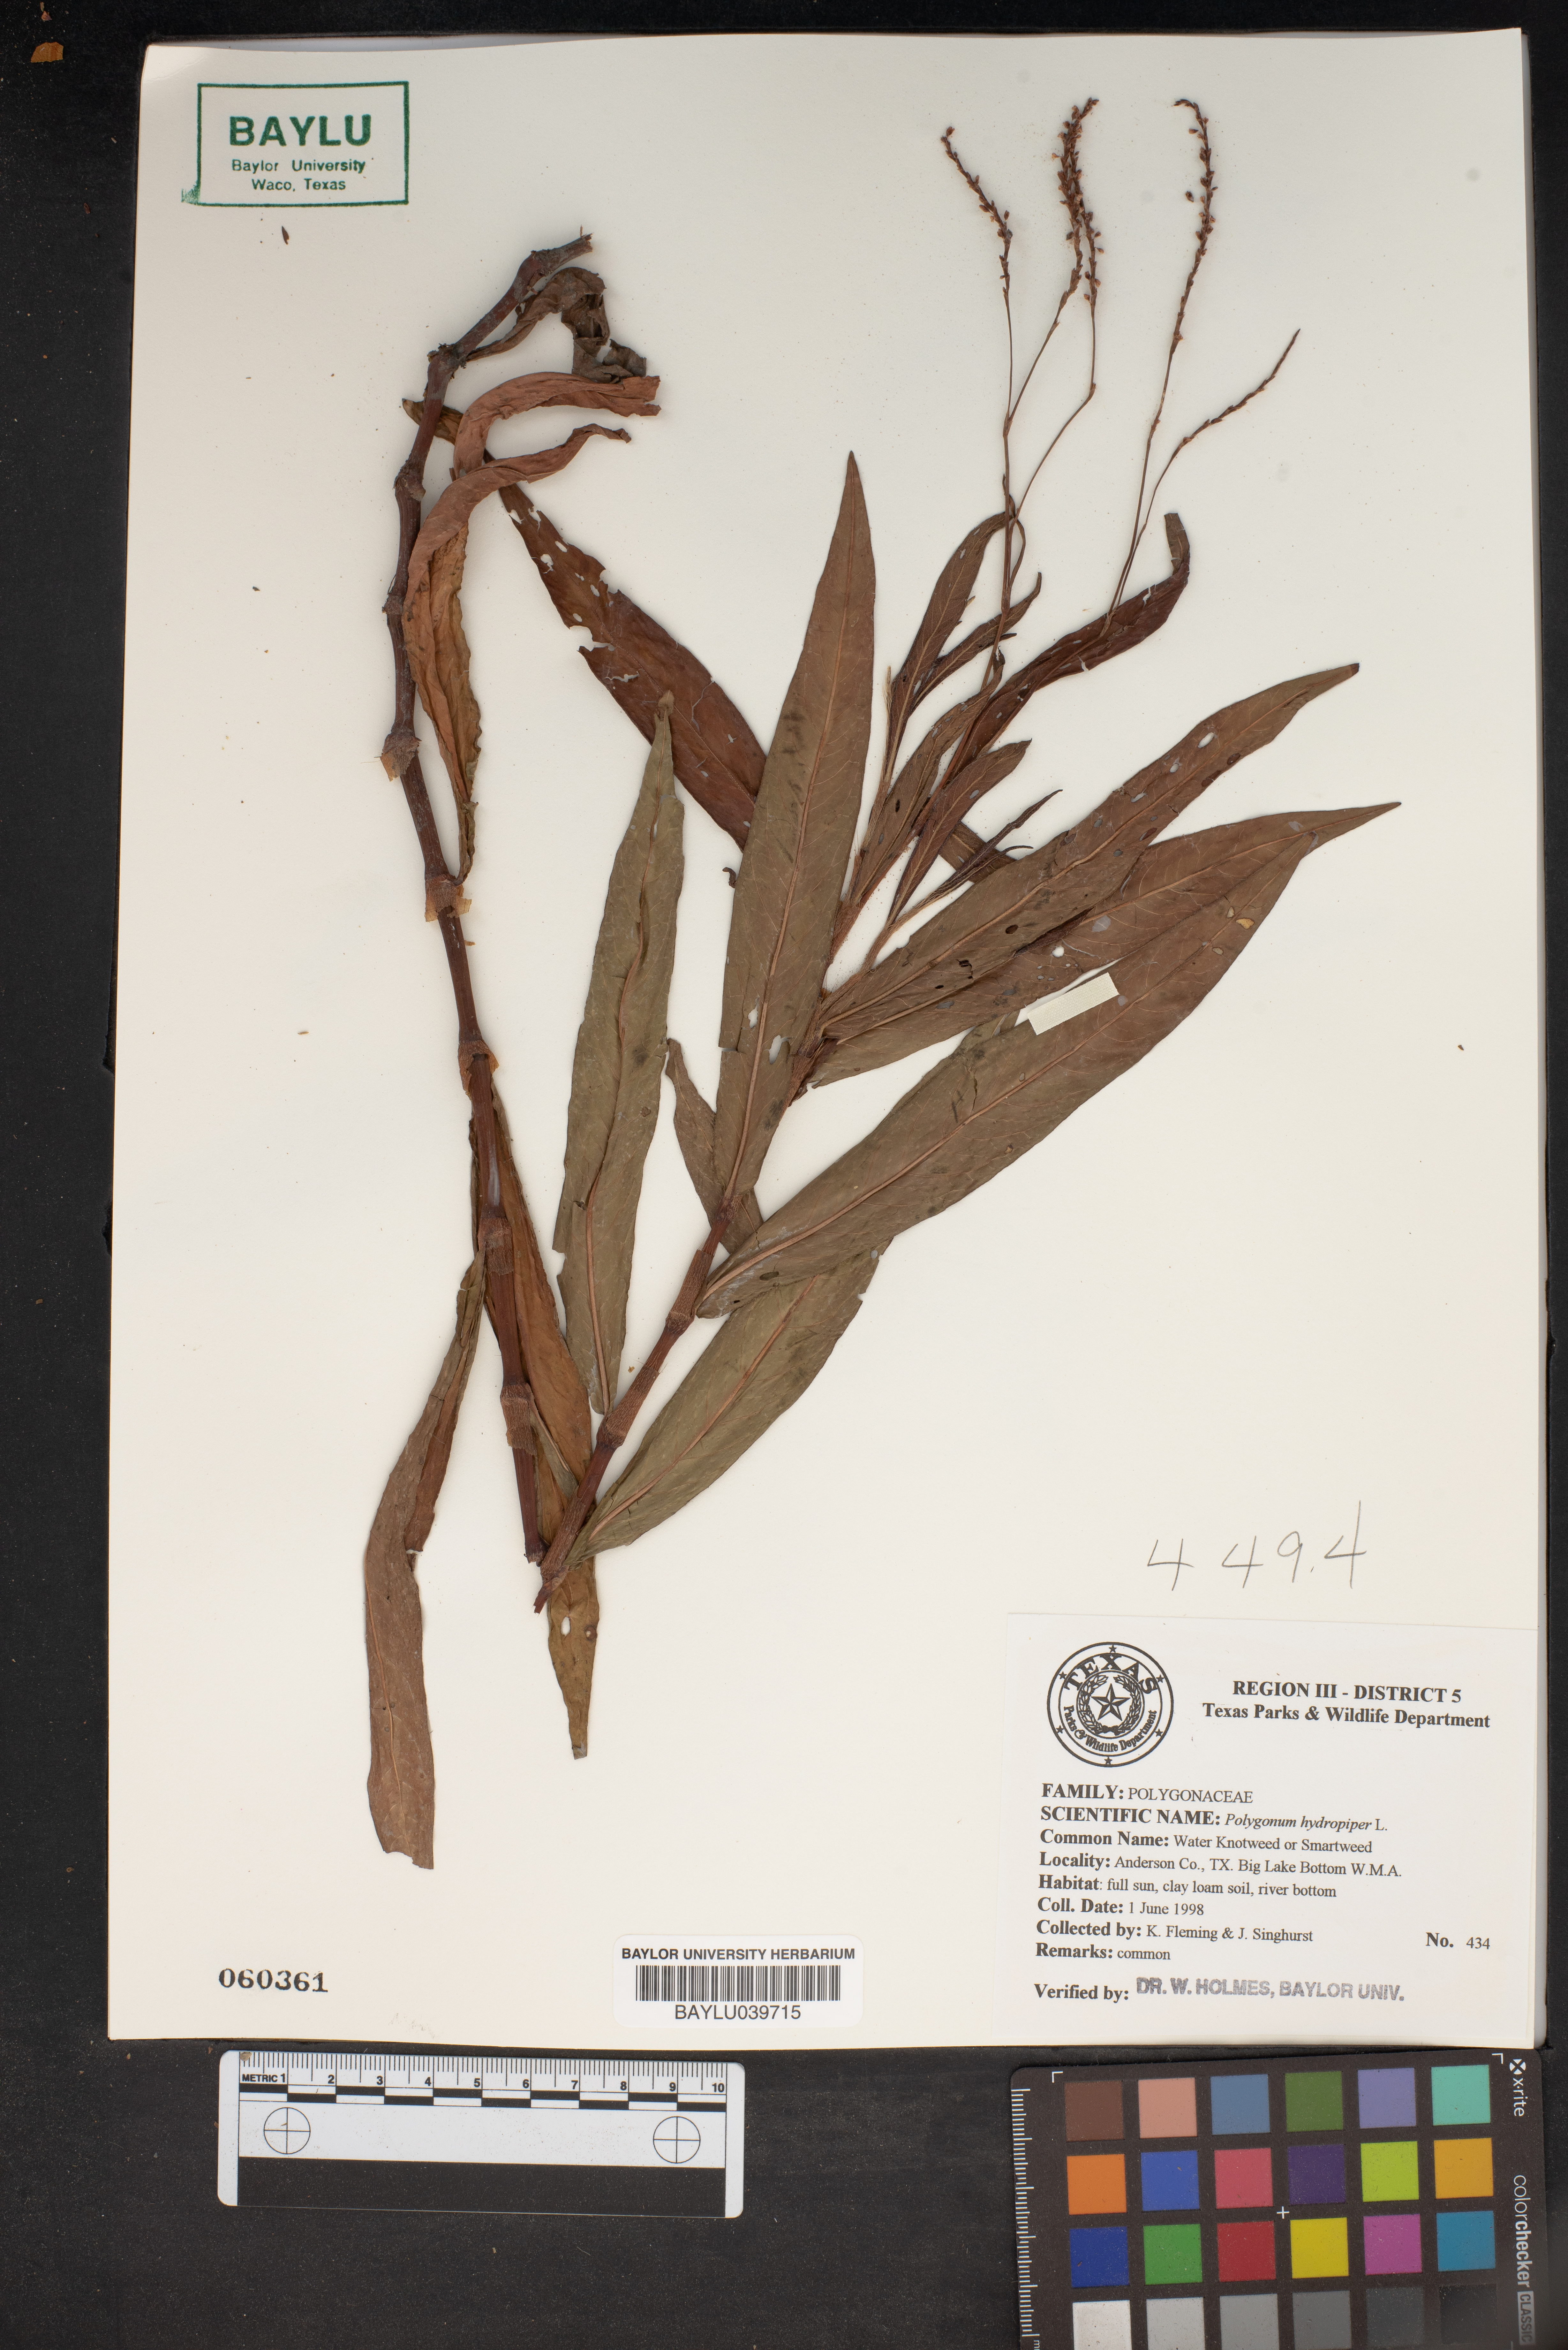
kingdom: Plantae
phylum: Tracheophyta
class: Magnoliopsida
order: Caryophyllales
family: Polygonaceae
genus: Persicaria
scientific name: Persicaria hydropiper
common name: Water-pepper
